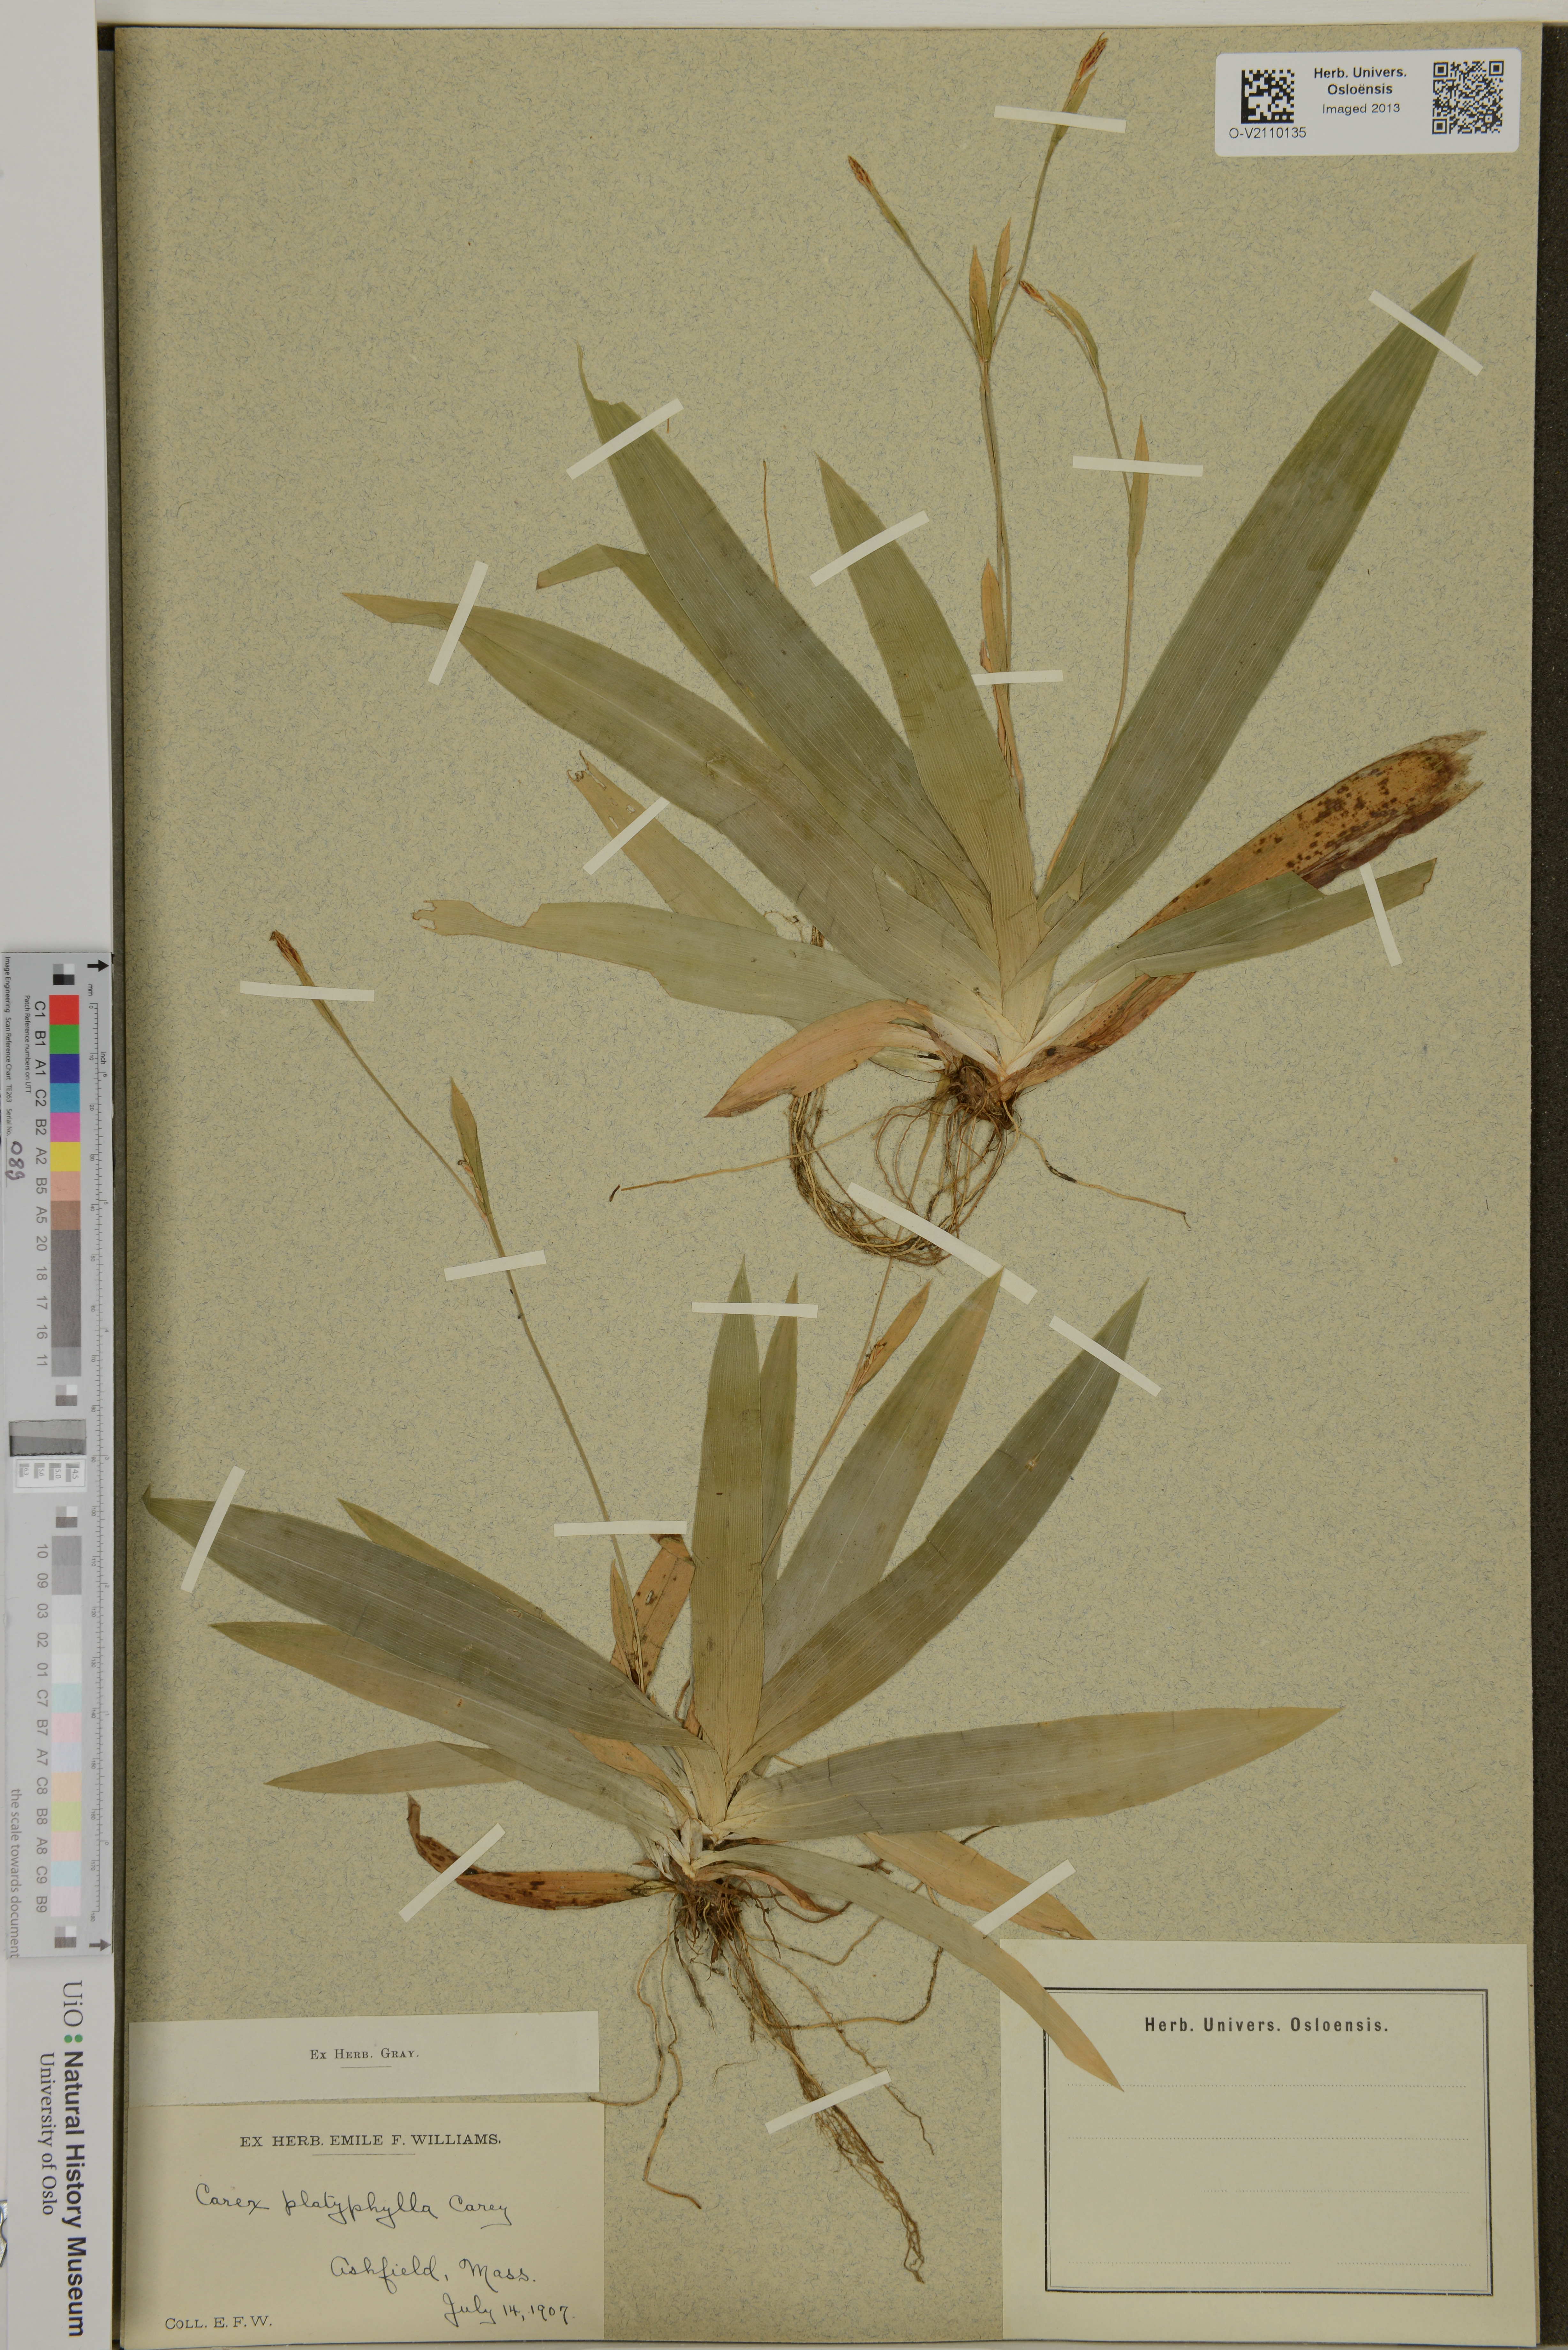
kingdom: Plantae
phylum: Tracheophyta
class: Liliopsida
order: Poales
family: Cyperaceae
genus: Carex
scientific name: Carex platyphylla
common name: Broad-leaved sedge
